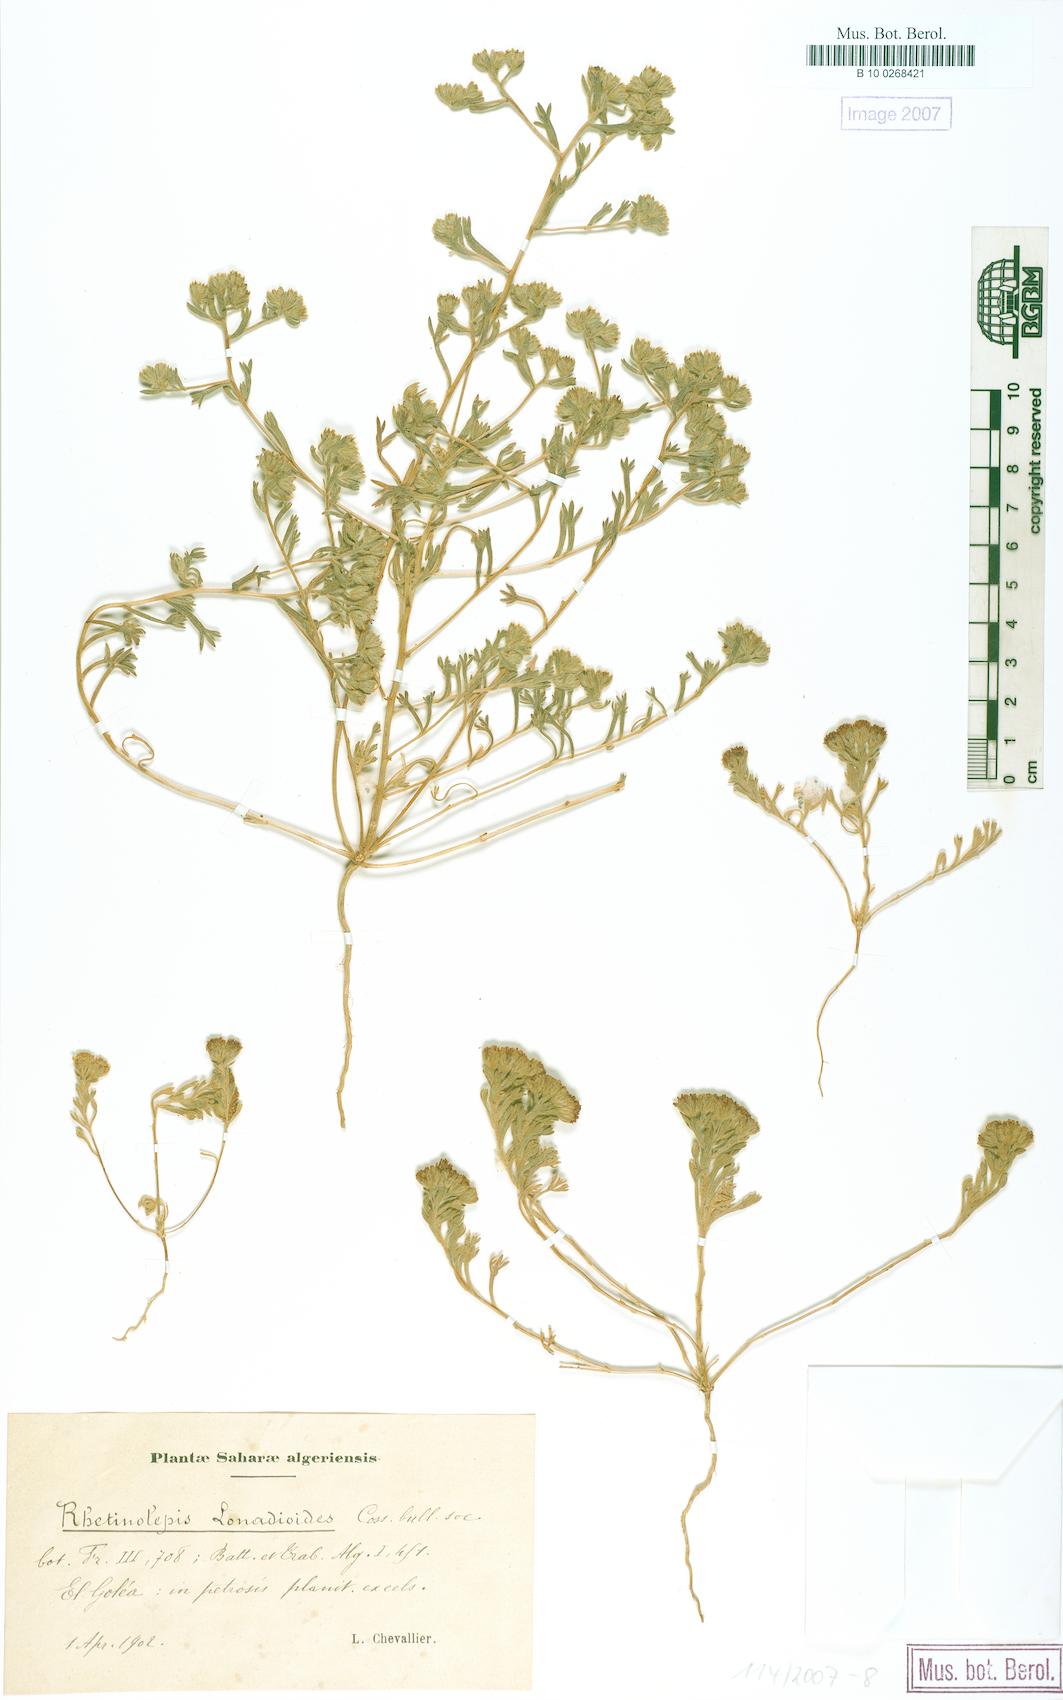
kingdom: Plantae
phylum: Tracheophyta
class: Magnoliopsida
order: Asterales
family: Asteraceae
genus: Rhetinolepis
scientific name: Rhetinolepis lonadioides
